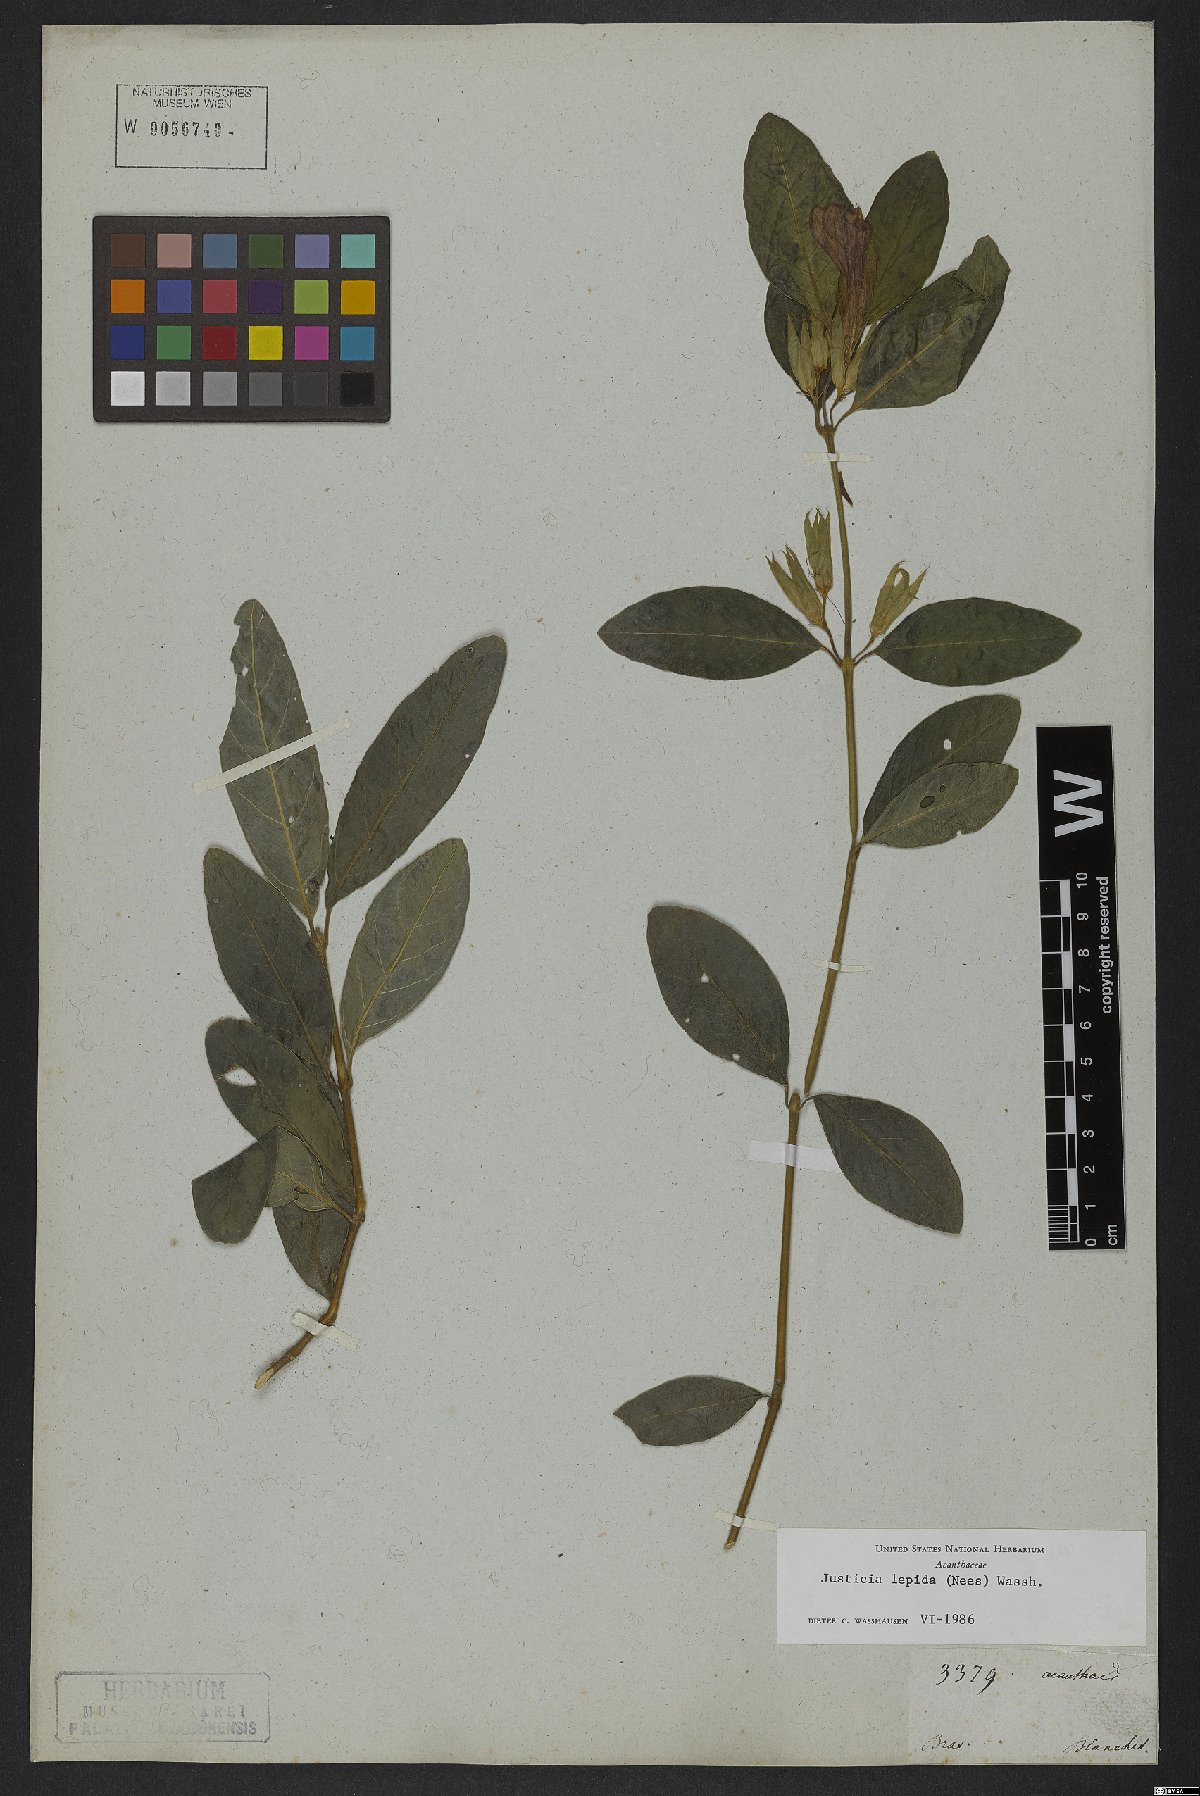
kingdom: Plantae
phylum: Tracheophyta
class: Magnoliopsida
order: Lamiales
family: Acanthaceae
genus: Justicia
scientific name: Justicia lepida
